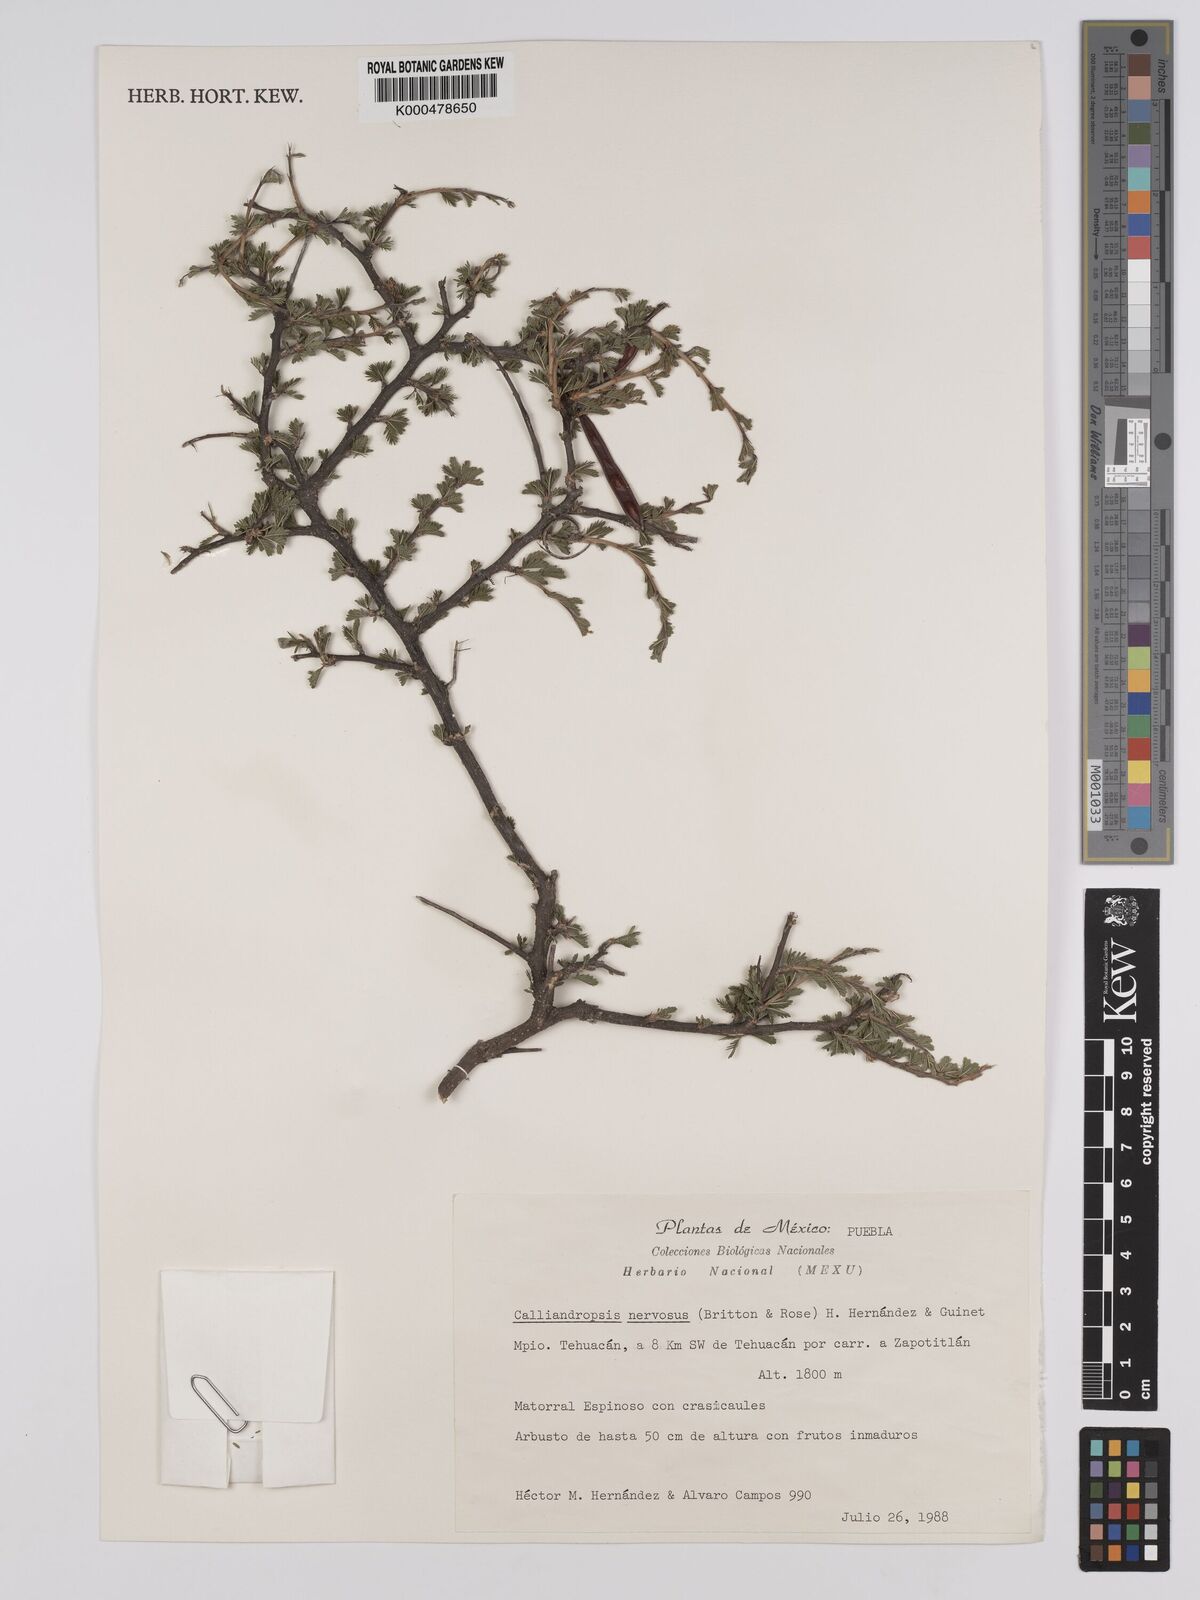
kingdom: Plantae
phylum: Tracheophyta
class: Magnoliopsida
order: Fabales
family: Fabaceae
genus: Calliandropsis
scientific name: Calliandropsis nervosa
